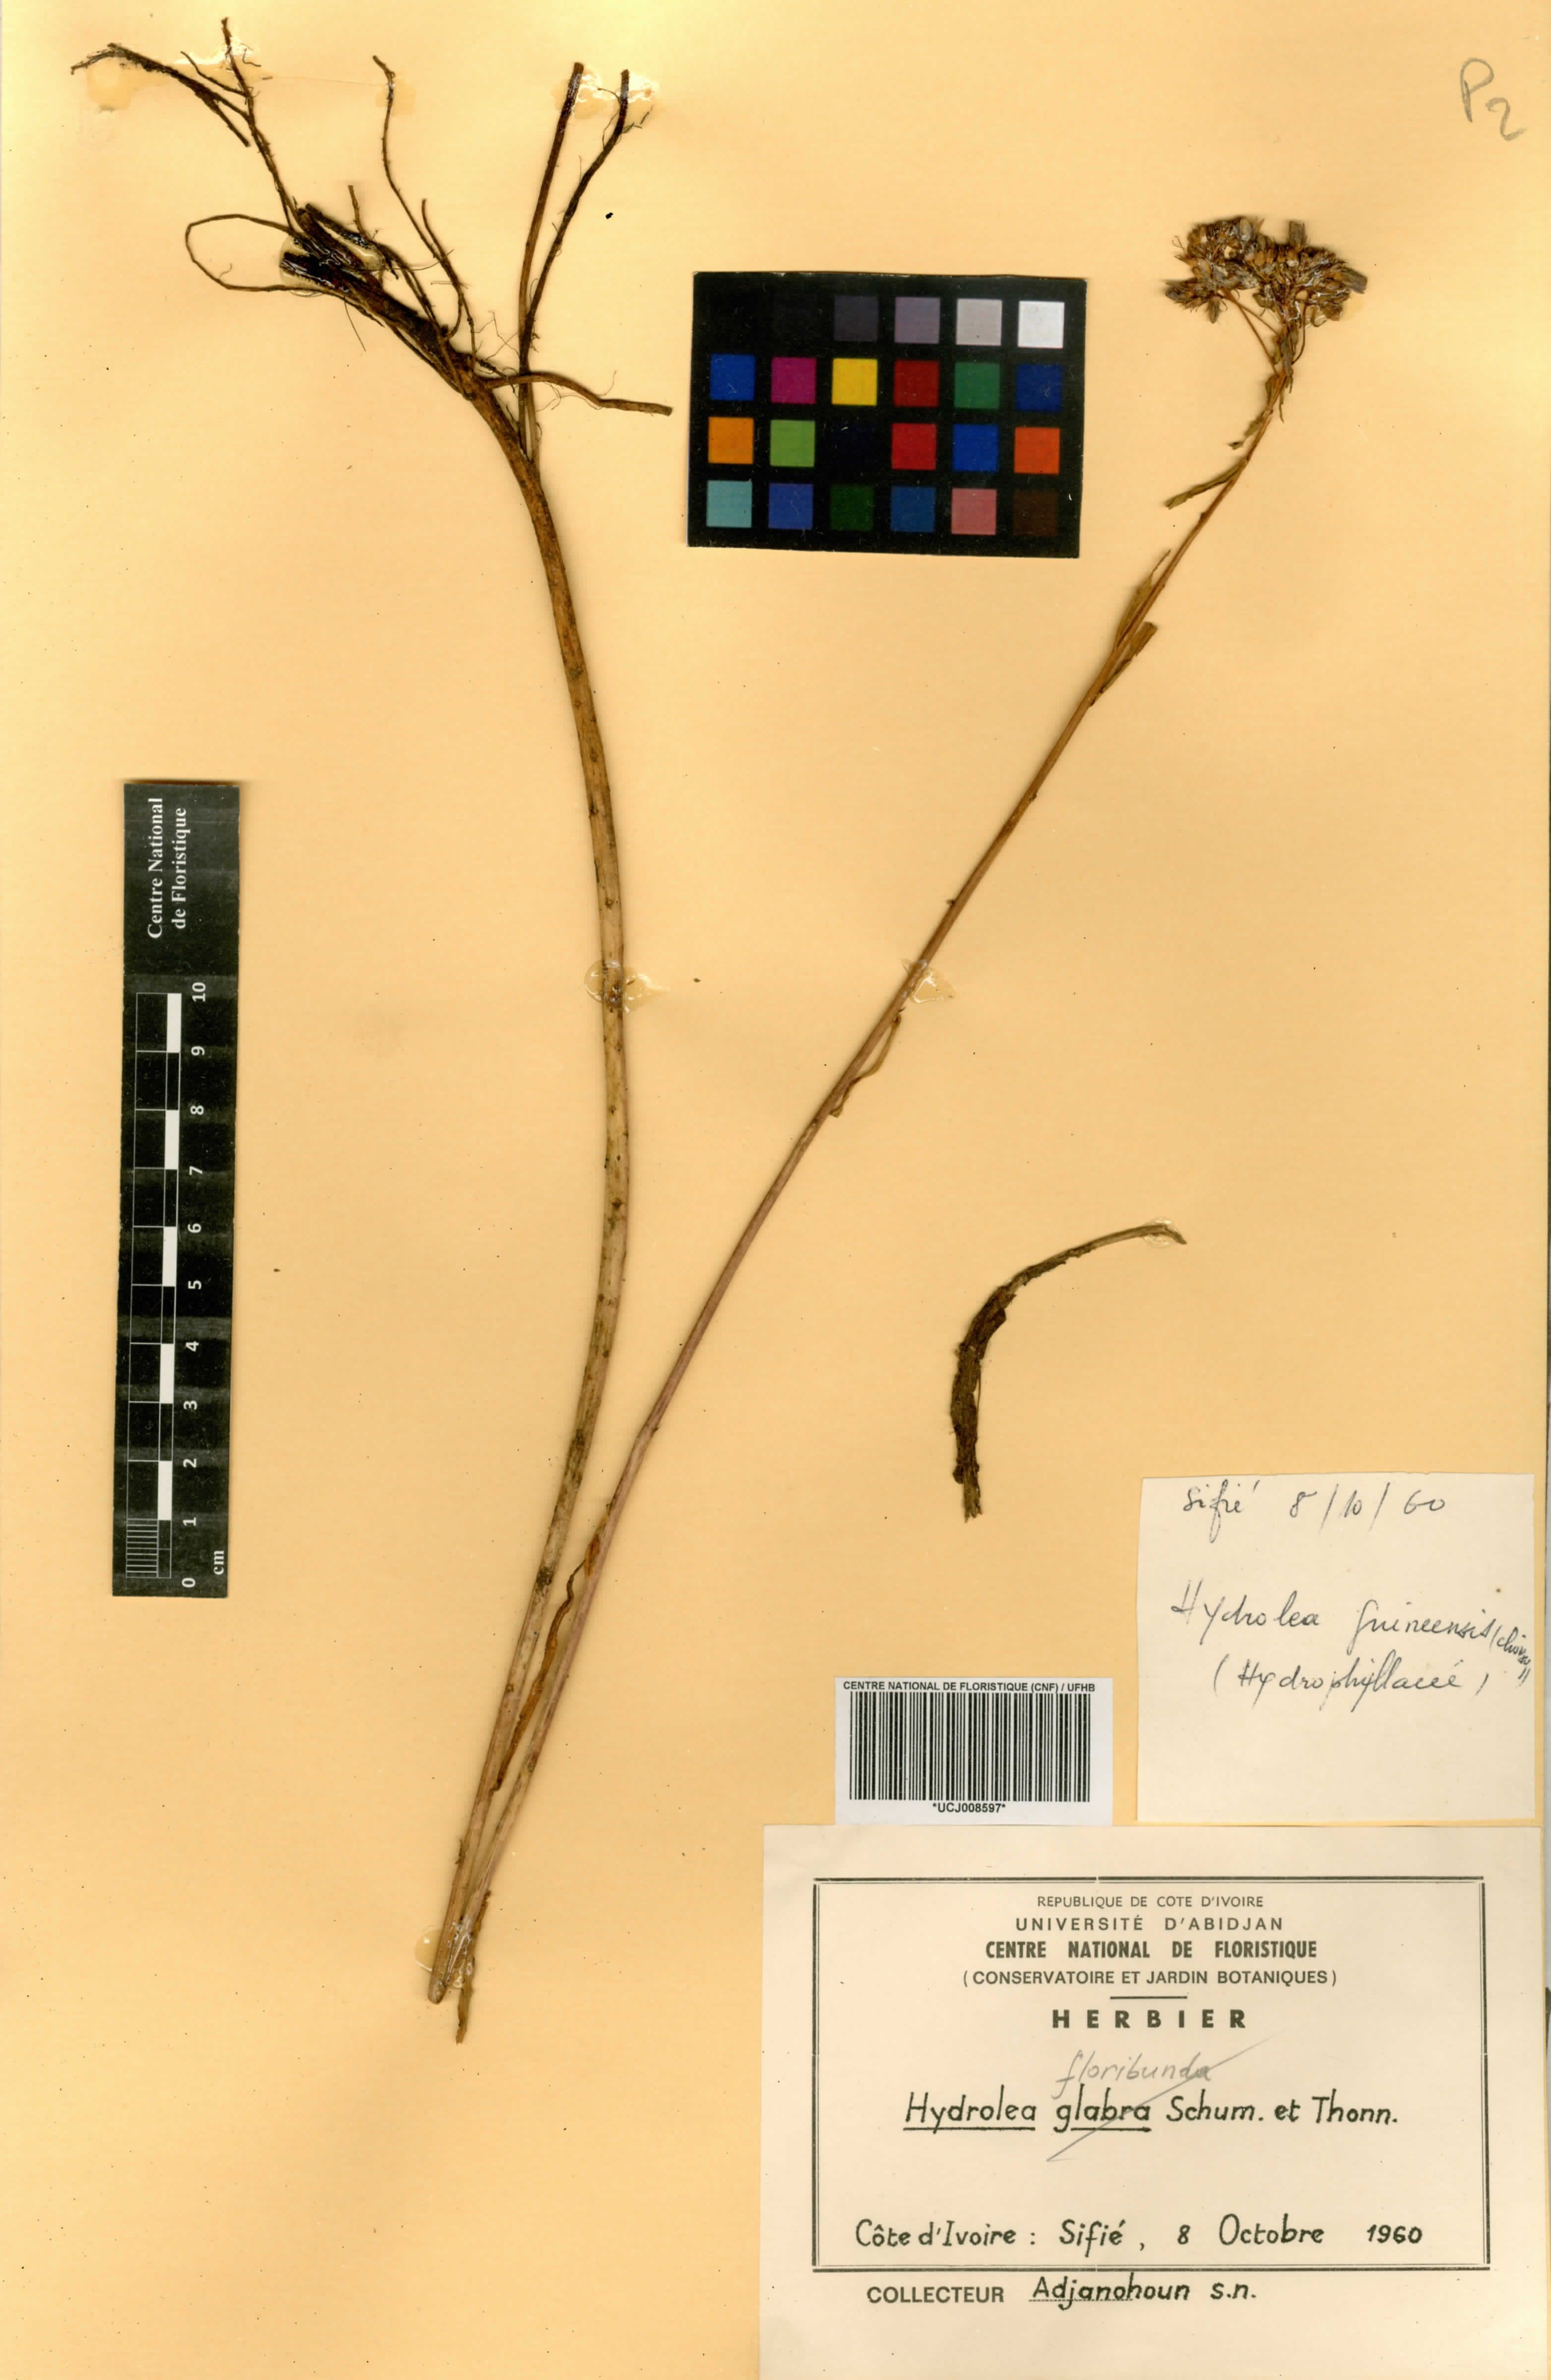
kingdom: Plantae
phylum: Tracheophyta
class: Magnoliopsida
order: Boraginales
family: Hydrophyllaceae
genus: Hydrolea
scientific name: Hydrolea
